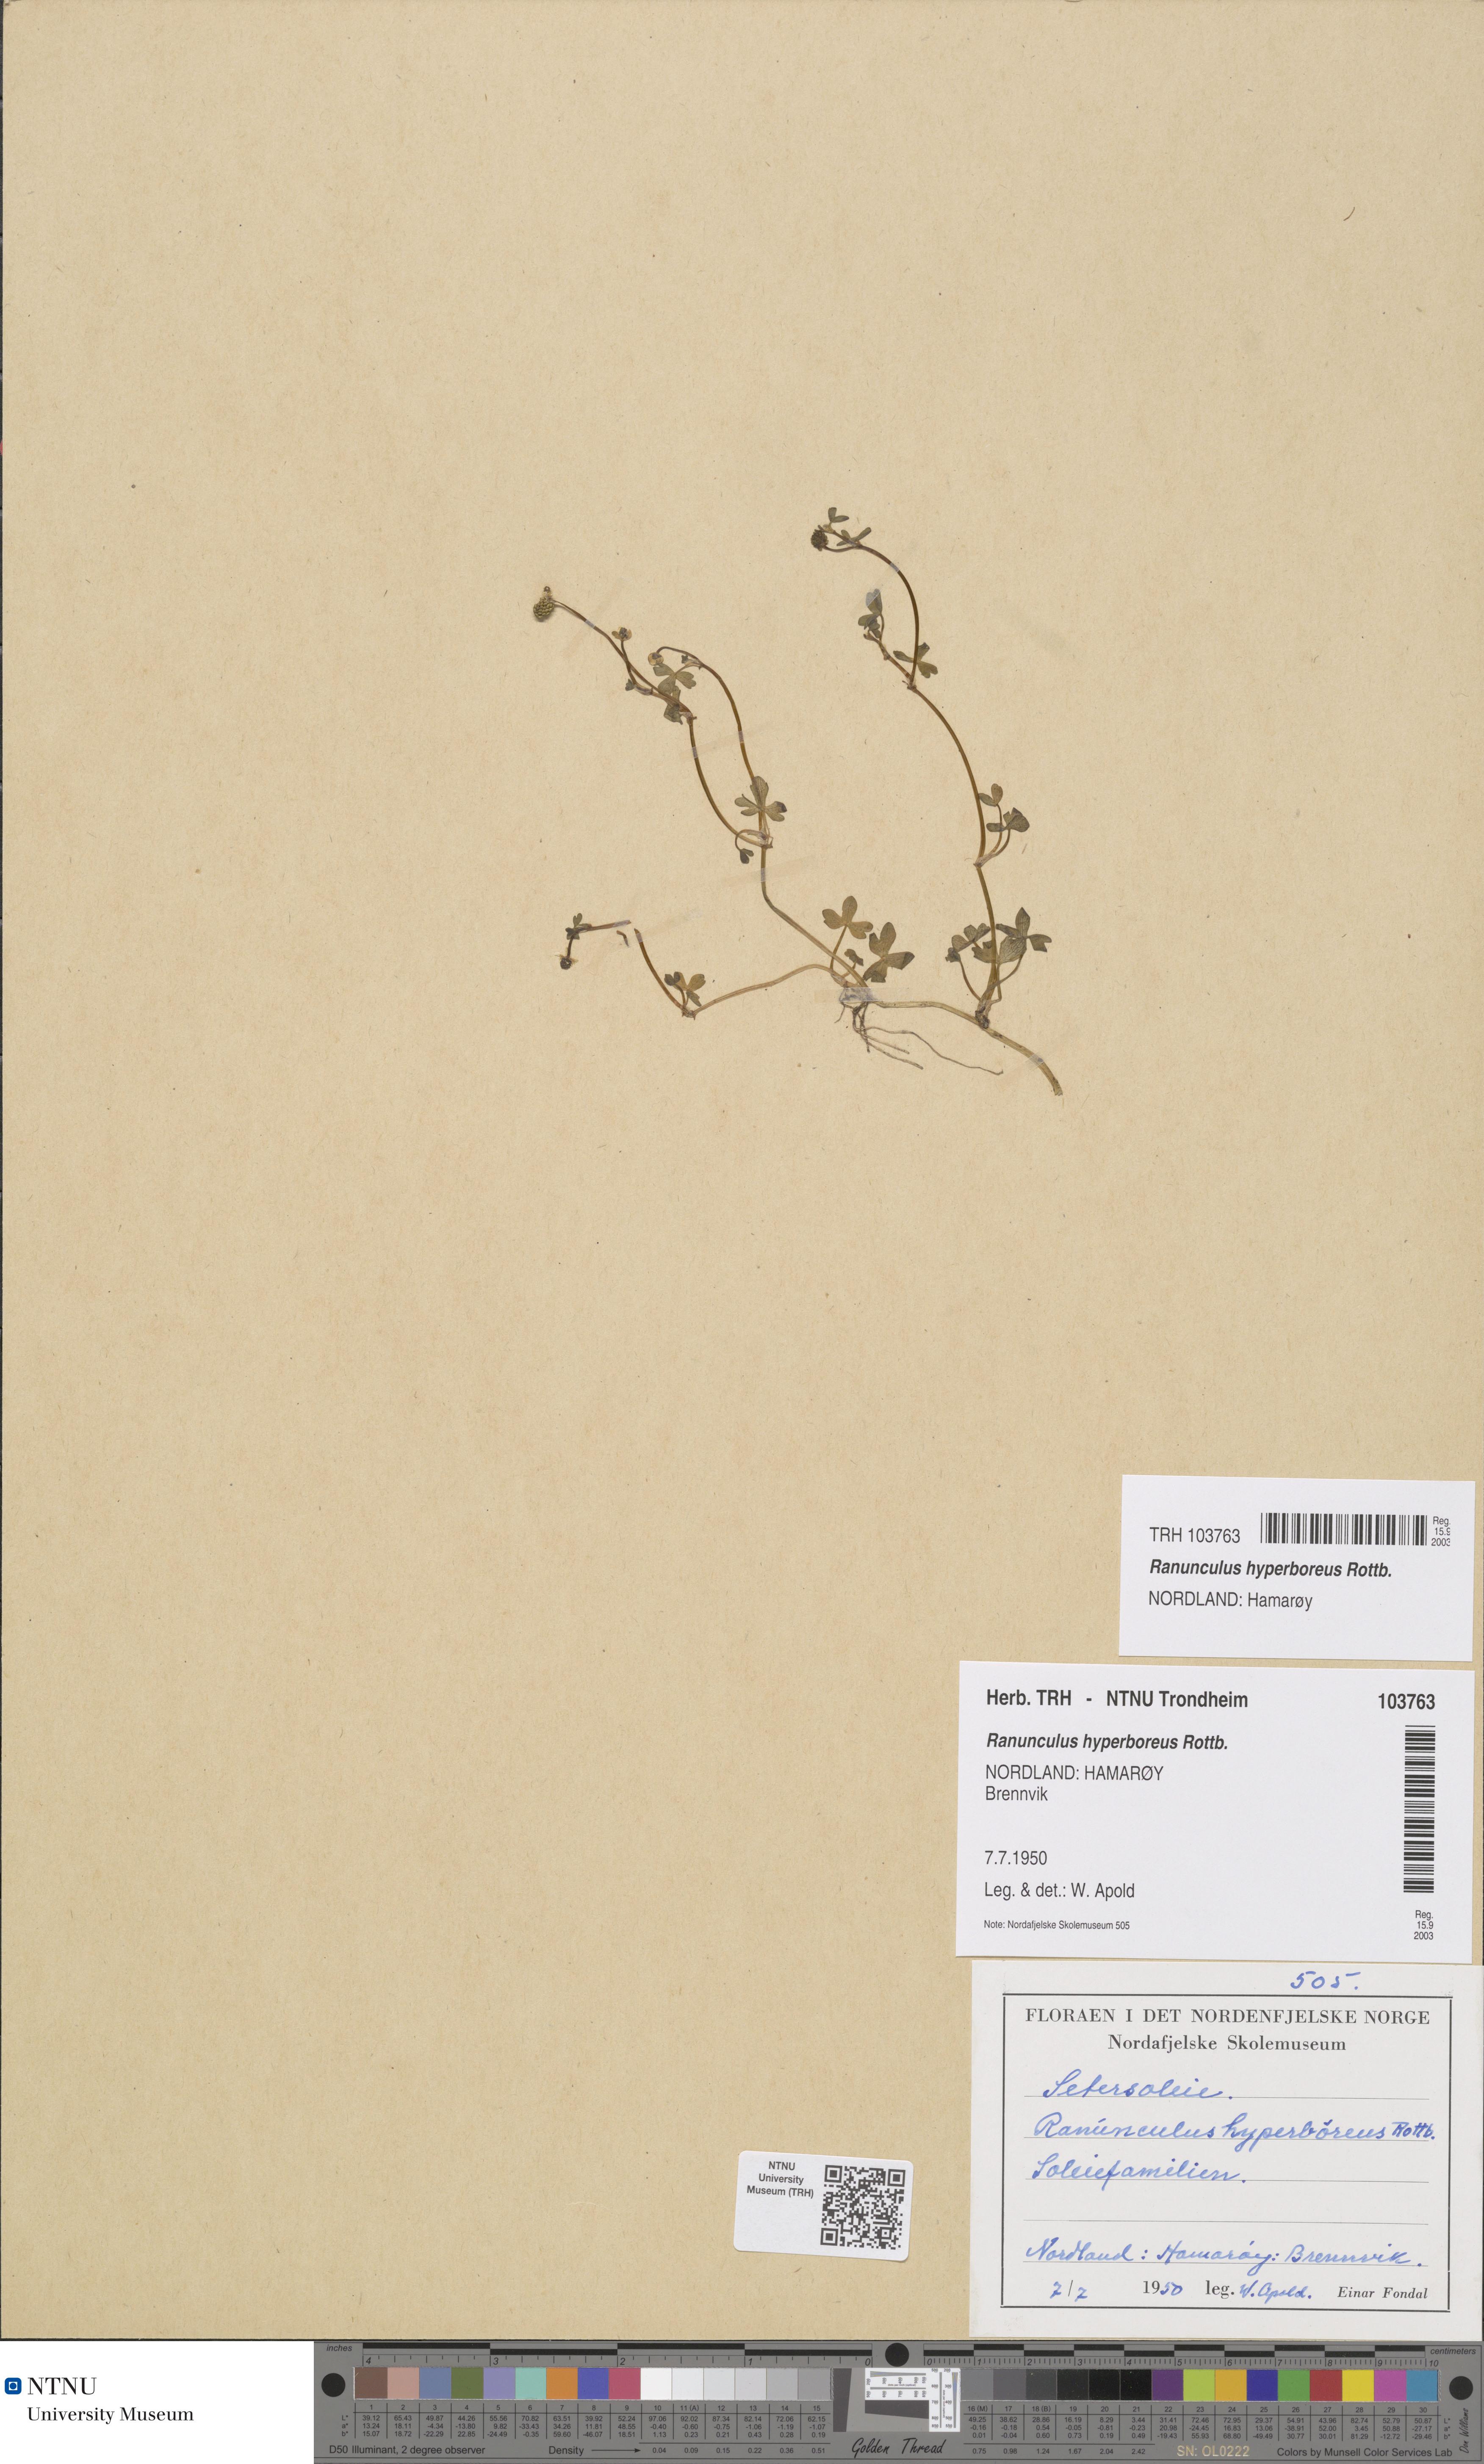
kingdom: Plantae
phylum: Tracheophyta
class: Magnoliopsida
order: Ranunculales
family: Ranunculaceae
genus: Ranunculus
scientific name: Ranunculus hyperboreus
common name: Arctic buttercup
